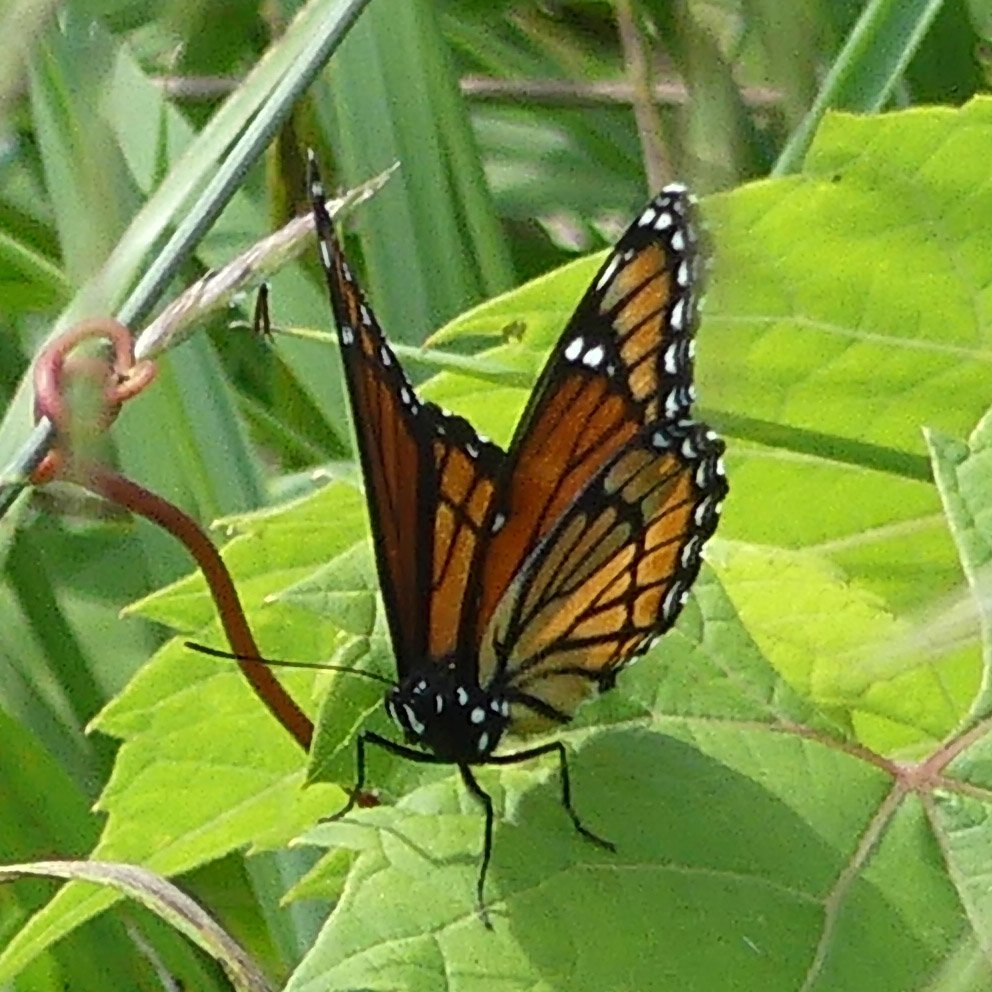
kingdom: Animalia
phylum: Arthropoda
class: Insecta
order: Lepidoptera
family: Nymphalidae
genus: Limenitis
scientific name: Limenitis archippus
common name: Viceroy
